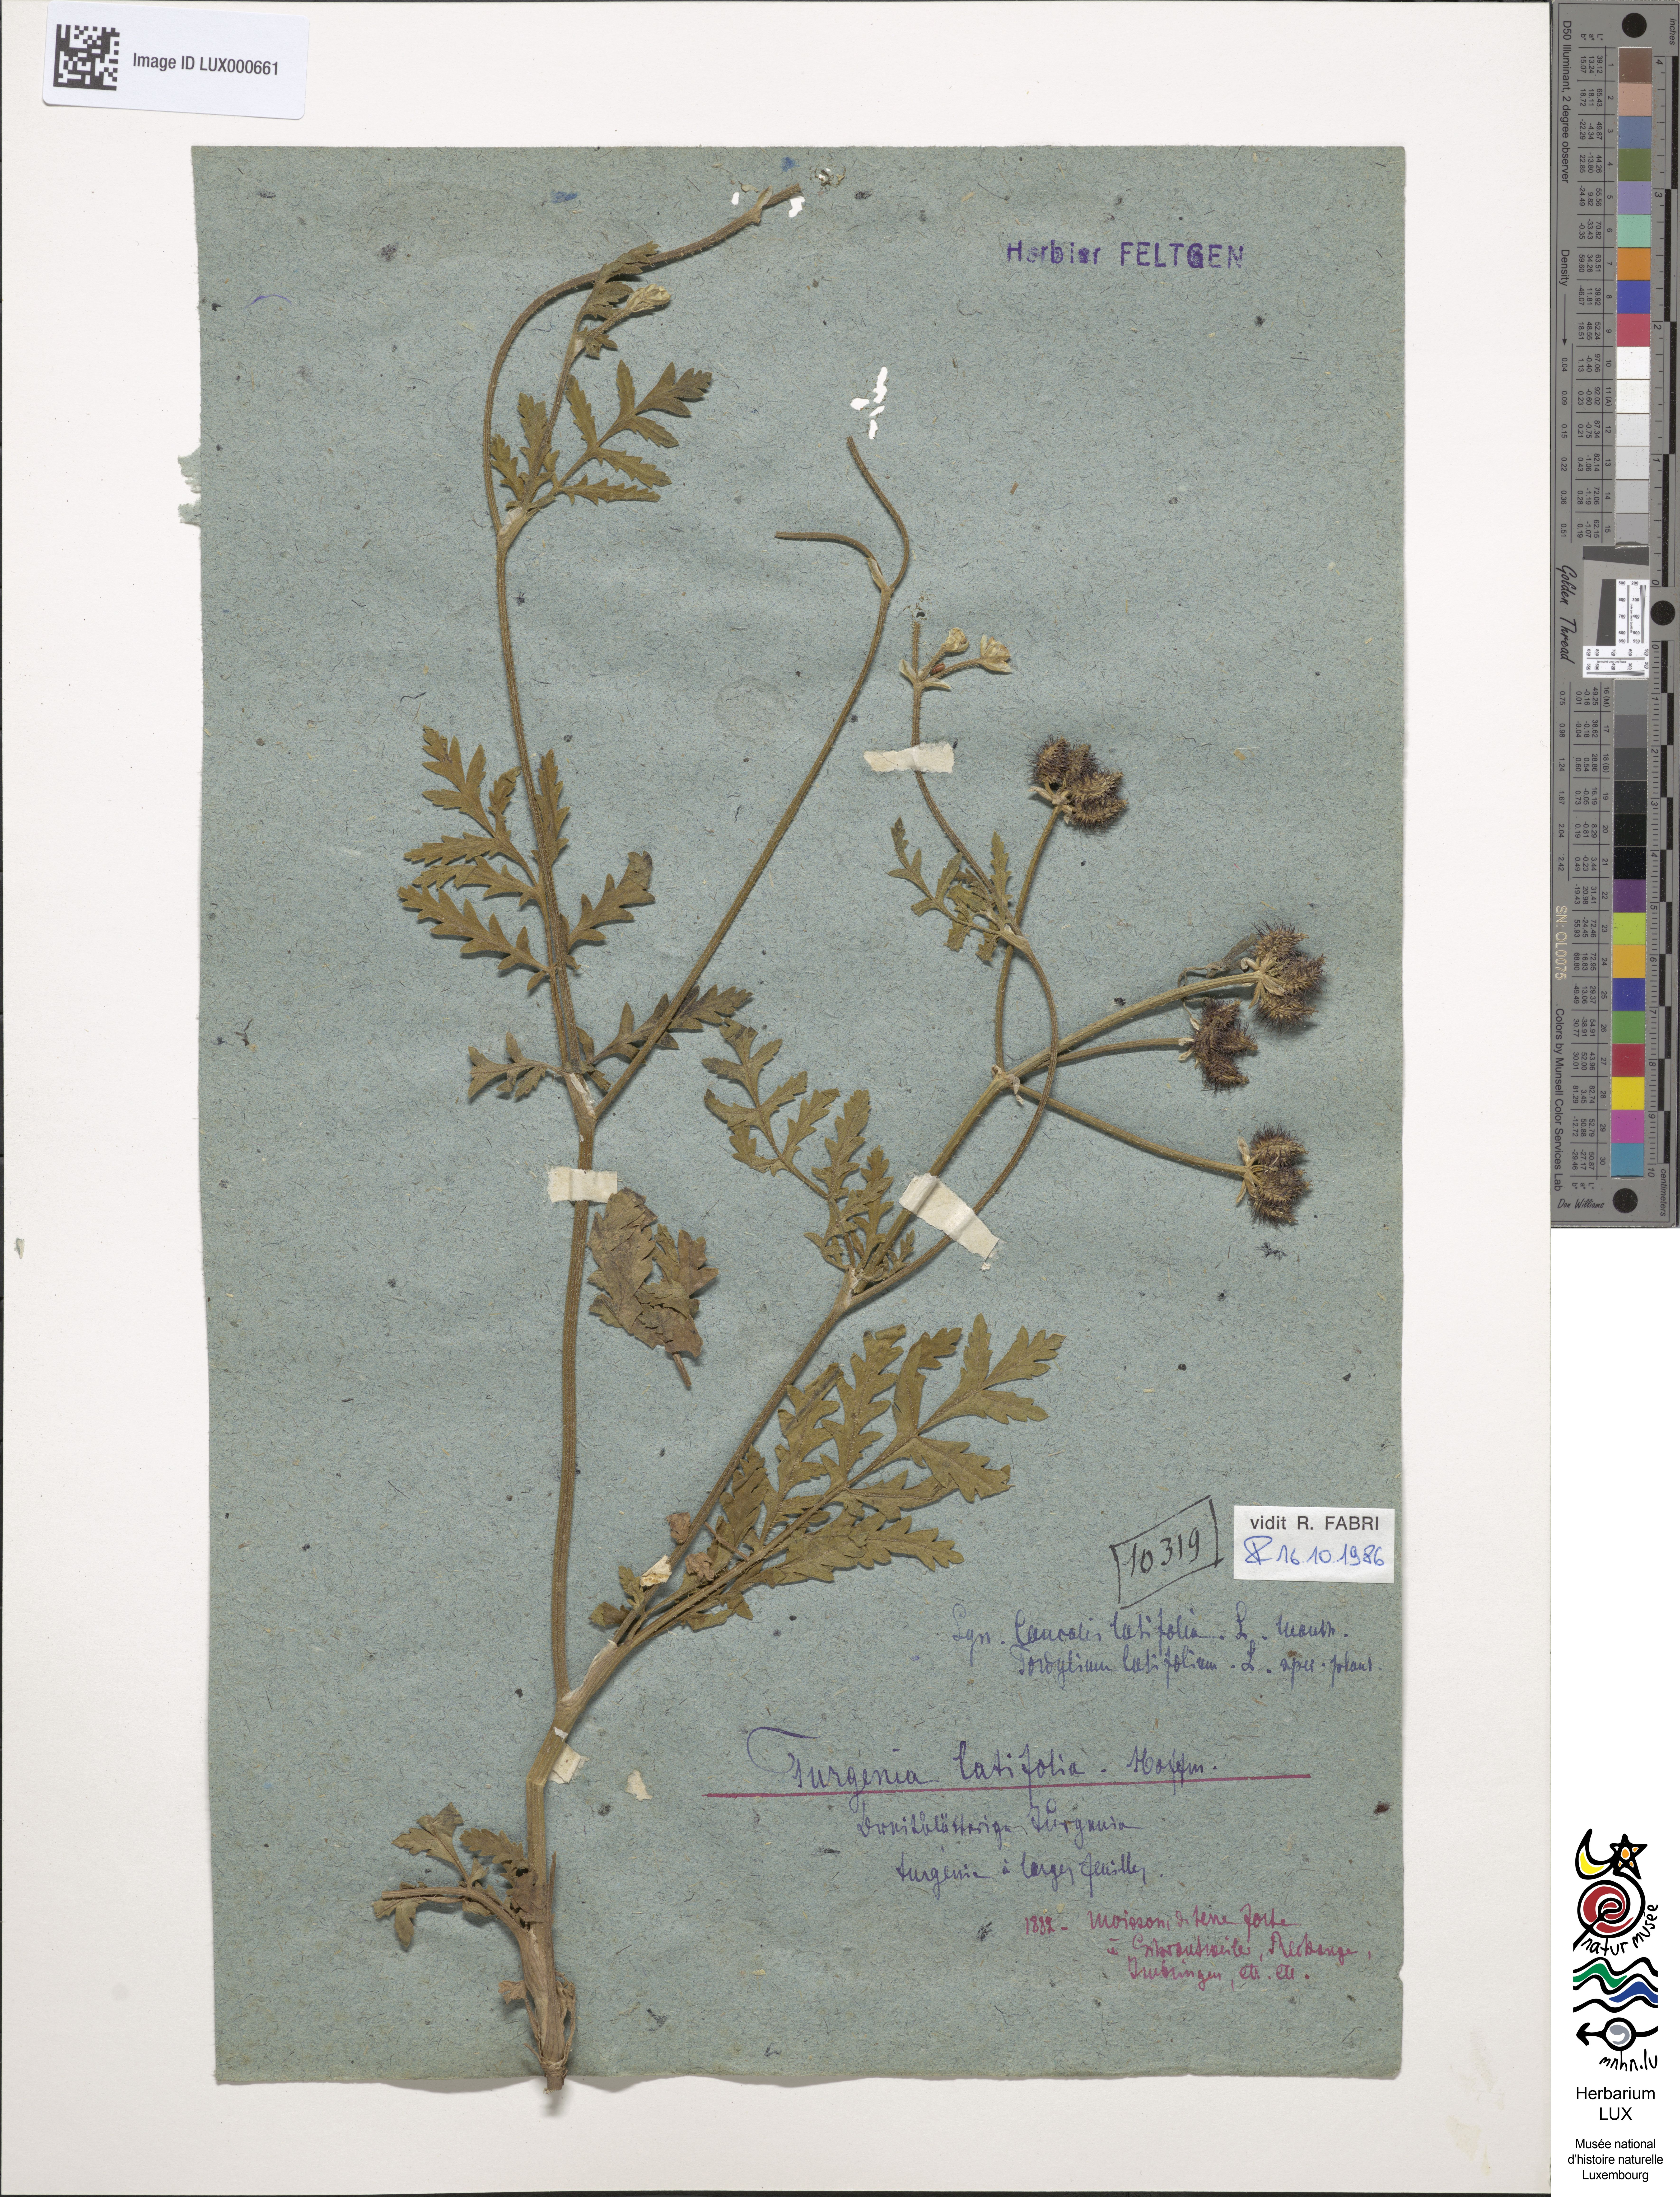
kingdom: Plantae
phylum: Tracheophyta
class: Magnoliopsida
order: Apiales
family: Apiaceae
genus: Turgenia
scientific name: Turgenia latifolia
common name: Greater bur-parsley
